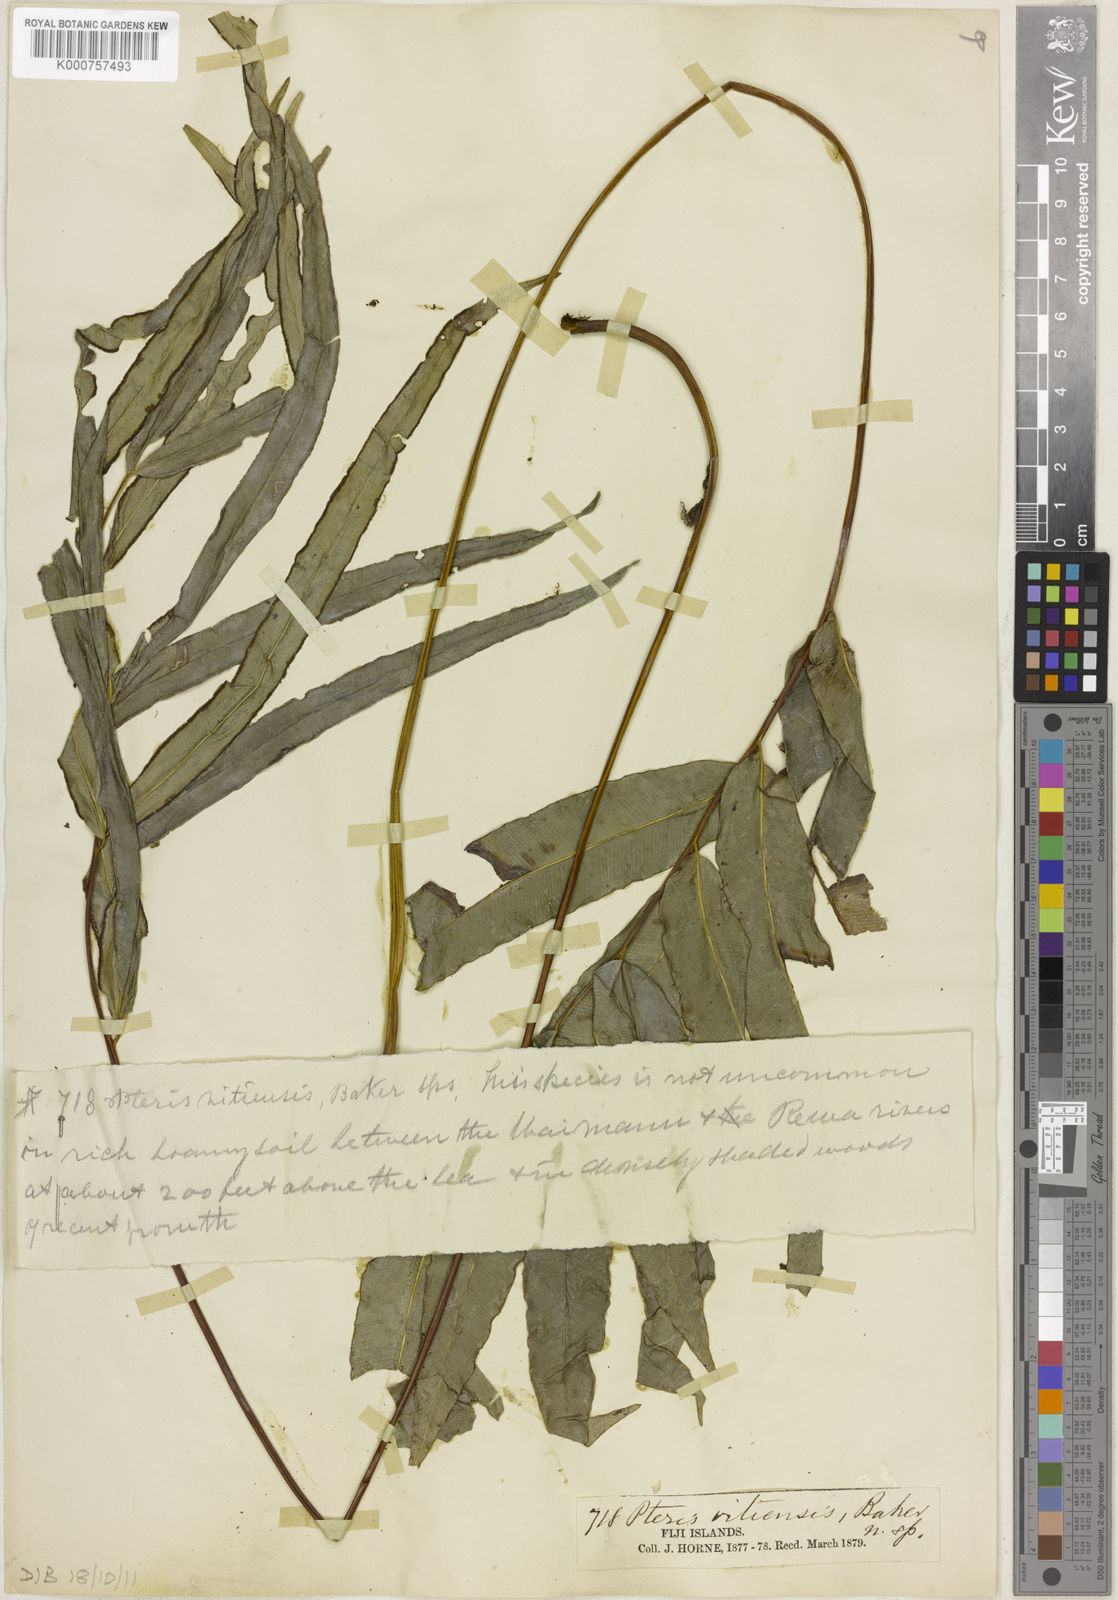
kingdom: Plantae
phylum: Tracheophyta
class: Polypodiopsida
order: Polypodiales
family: Pteridaceae
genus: Pteris
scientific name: Pteris vitiensis
